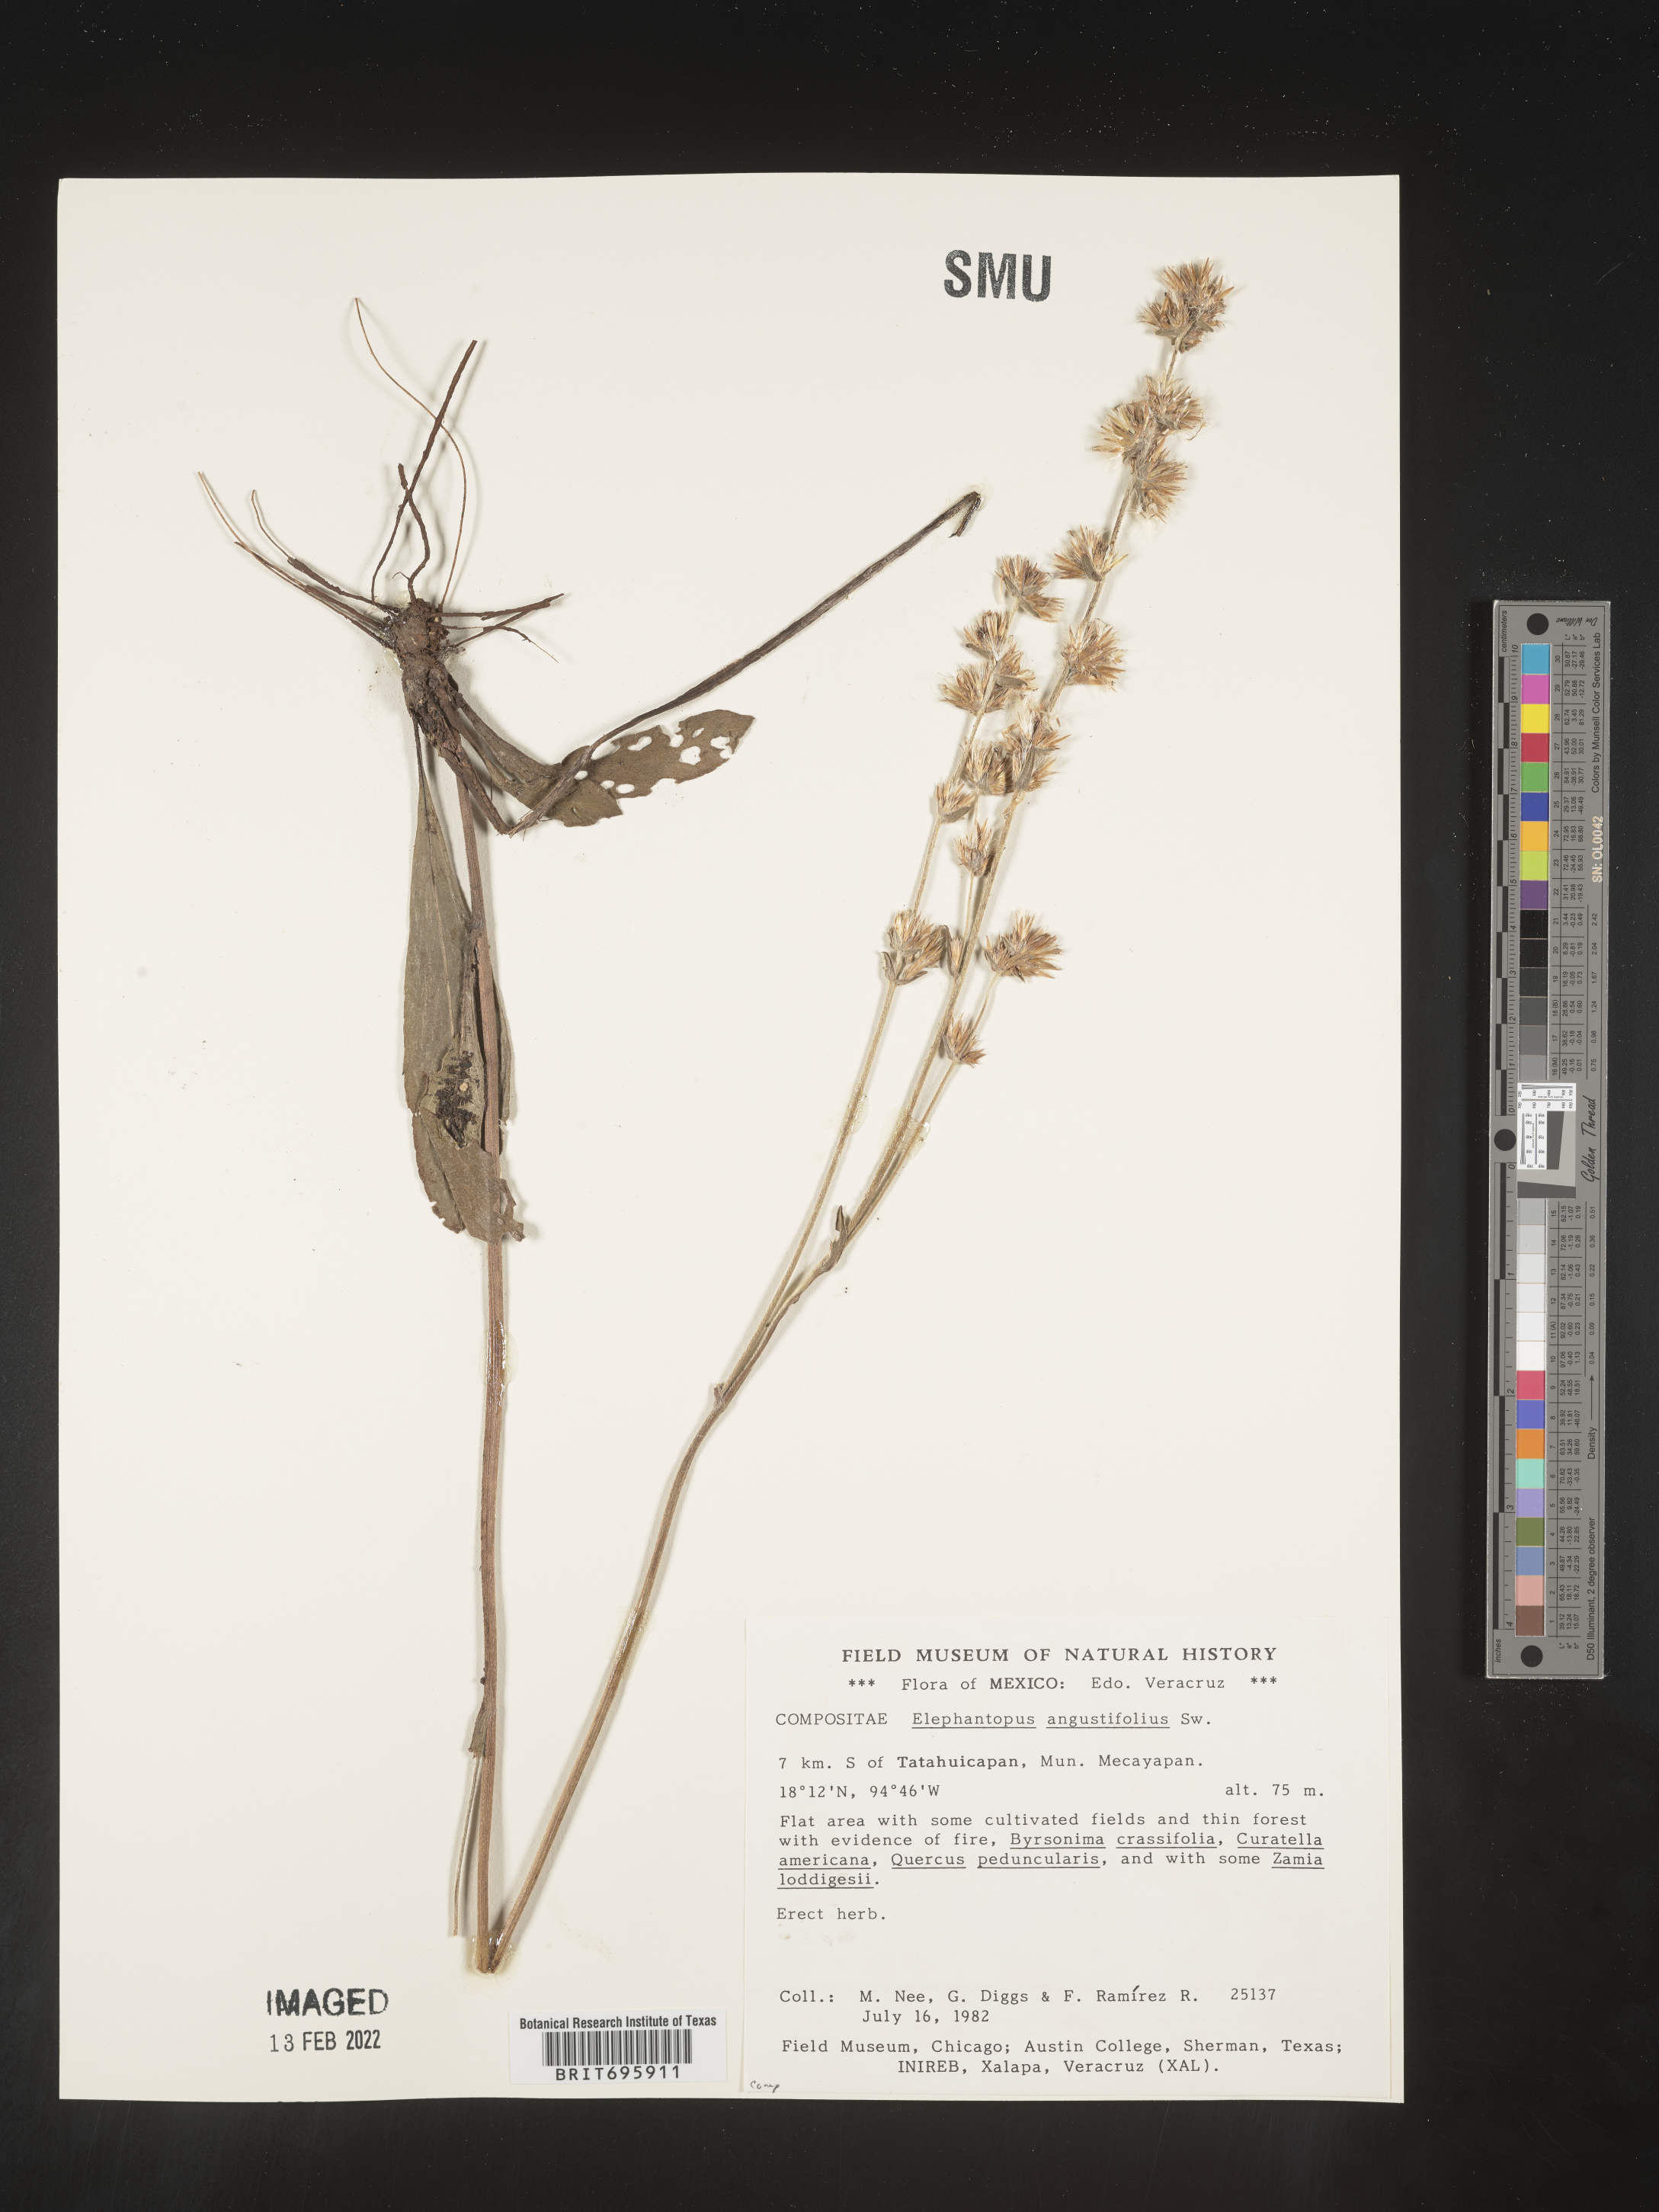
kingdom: Plantae
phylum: Tracheophyta
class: Magnoliopsida
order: Asterales
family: Asteraceae
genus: Elephantopus
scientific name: Elephantopus
